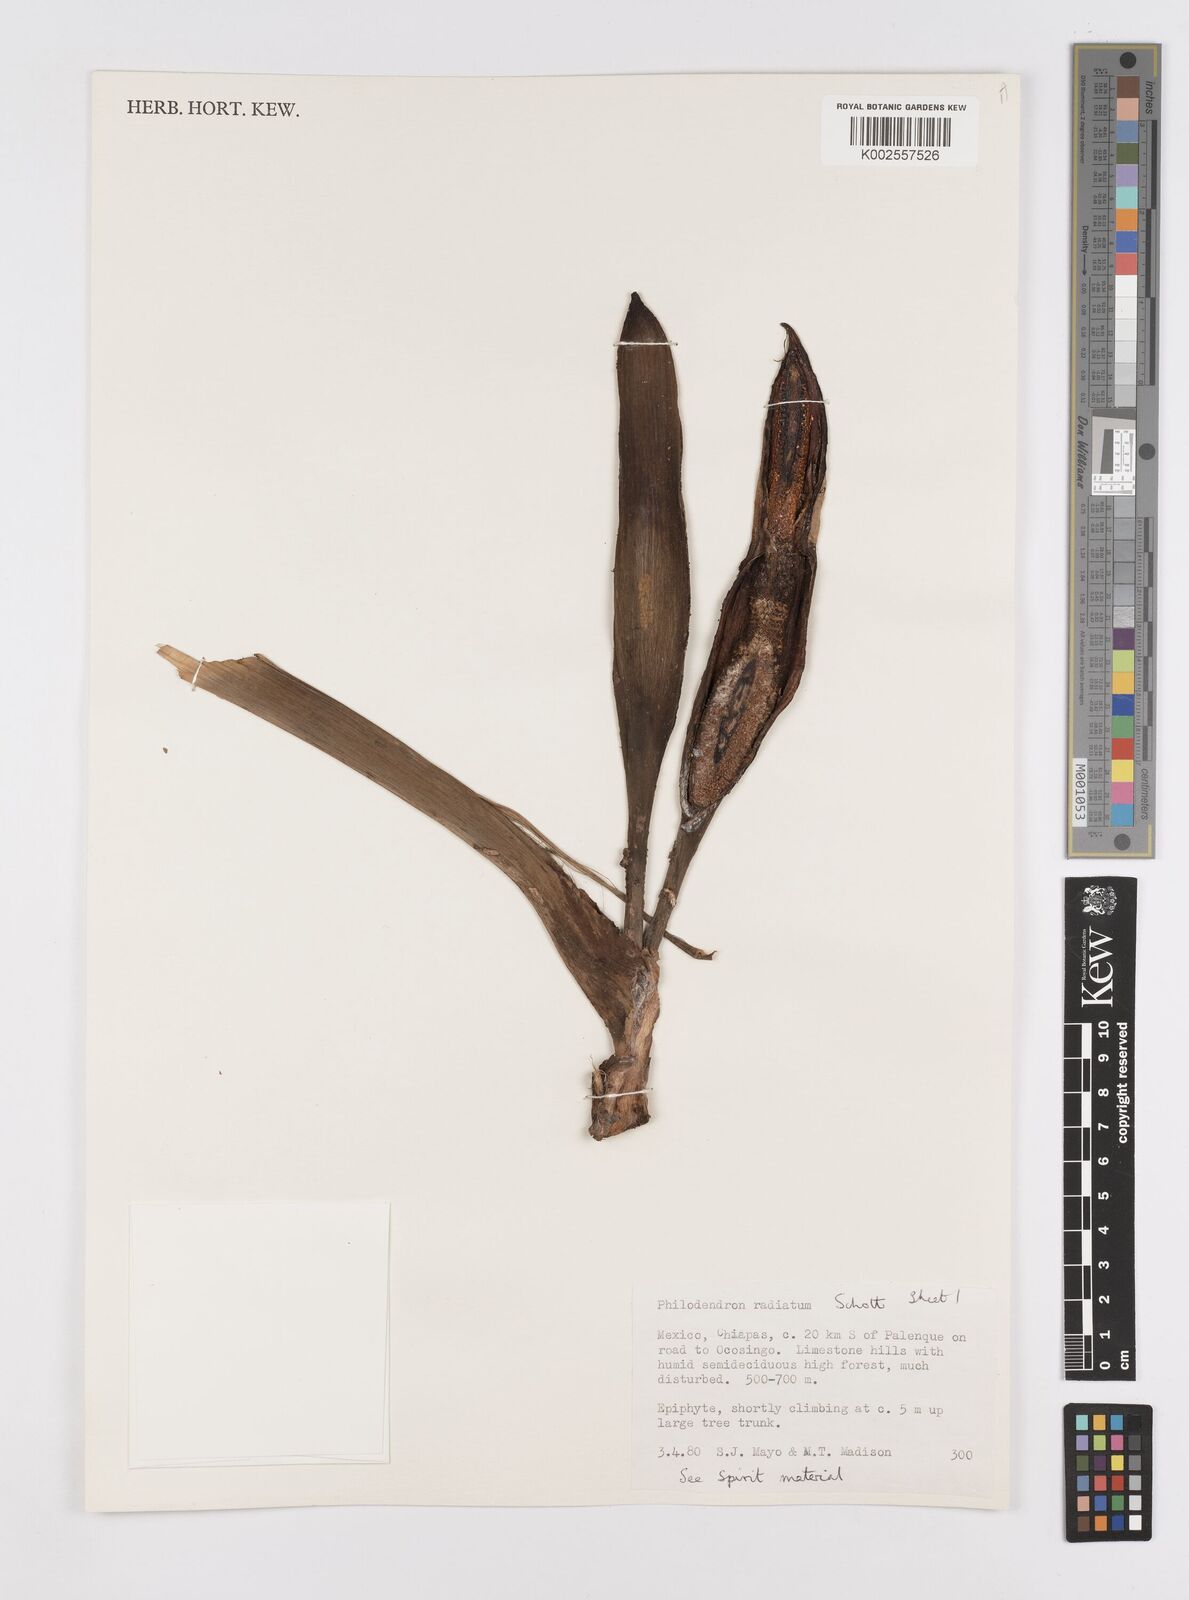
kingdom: Plantae
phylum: Tracheophyta
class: Liliopsida
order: Alismatales
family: Araceae
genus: Philodendron
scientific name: Philodendron radiatum
